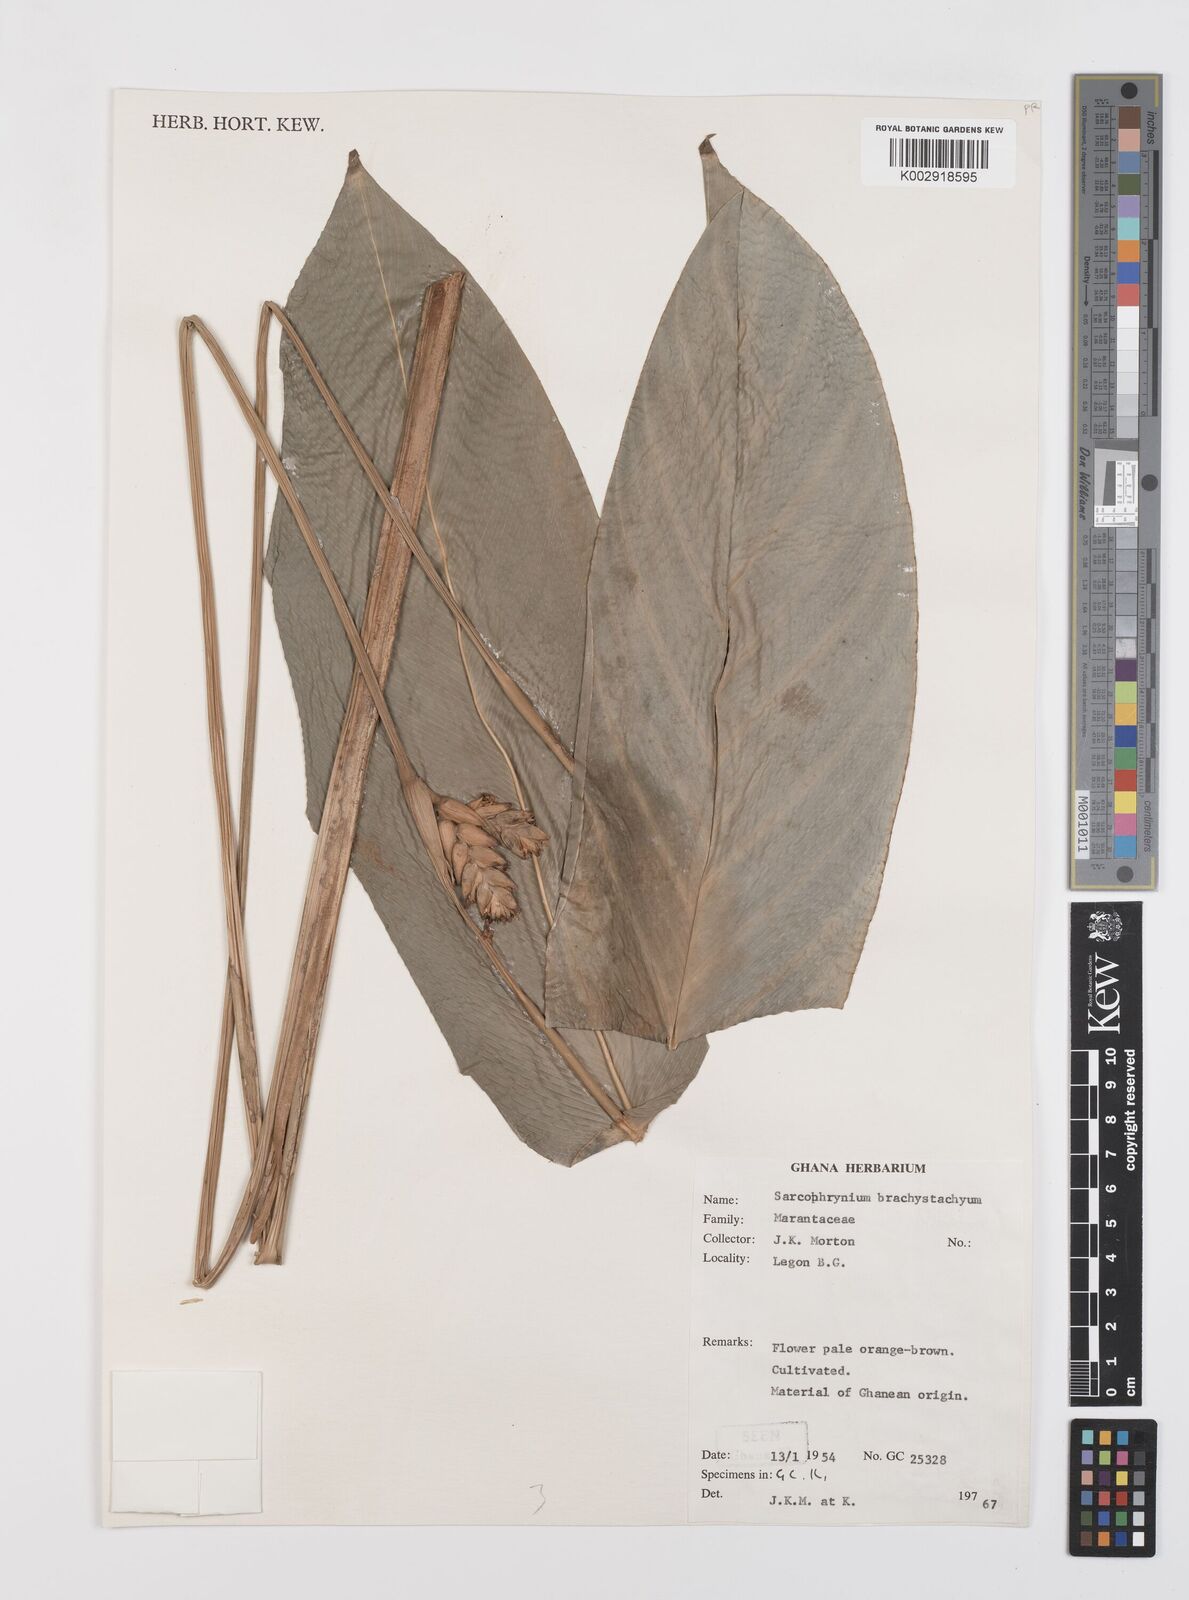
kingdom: Plantae
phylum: Tracheophyta
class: Liliopsida
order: Zingiberales
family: Marantaceae
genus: Sarcophrynium
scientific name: Sarcophrynium brachystachyum
